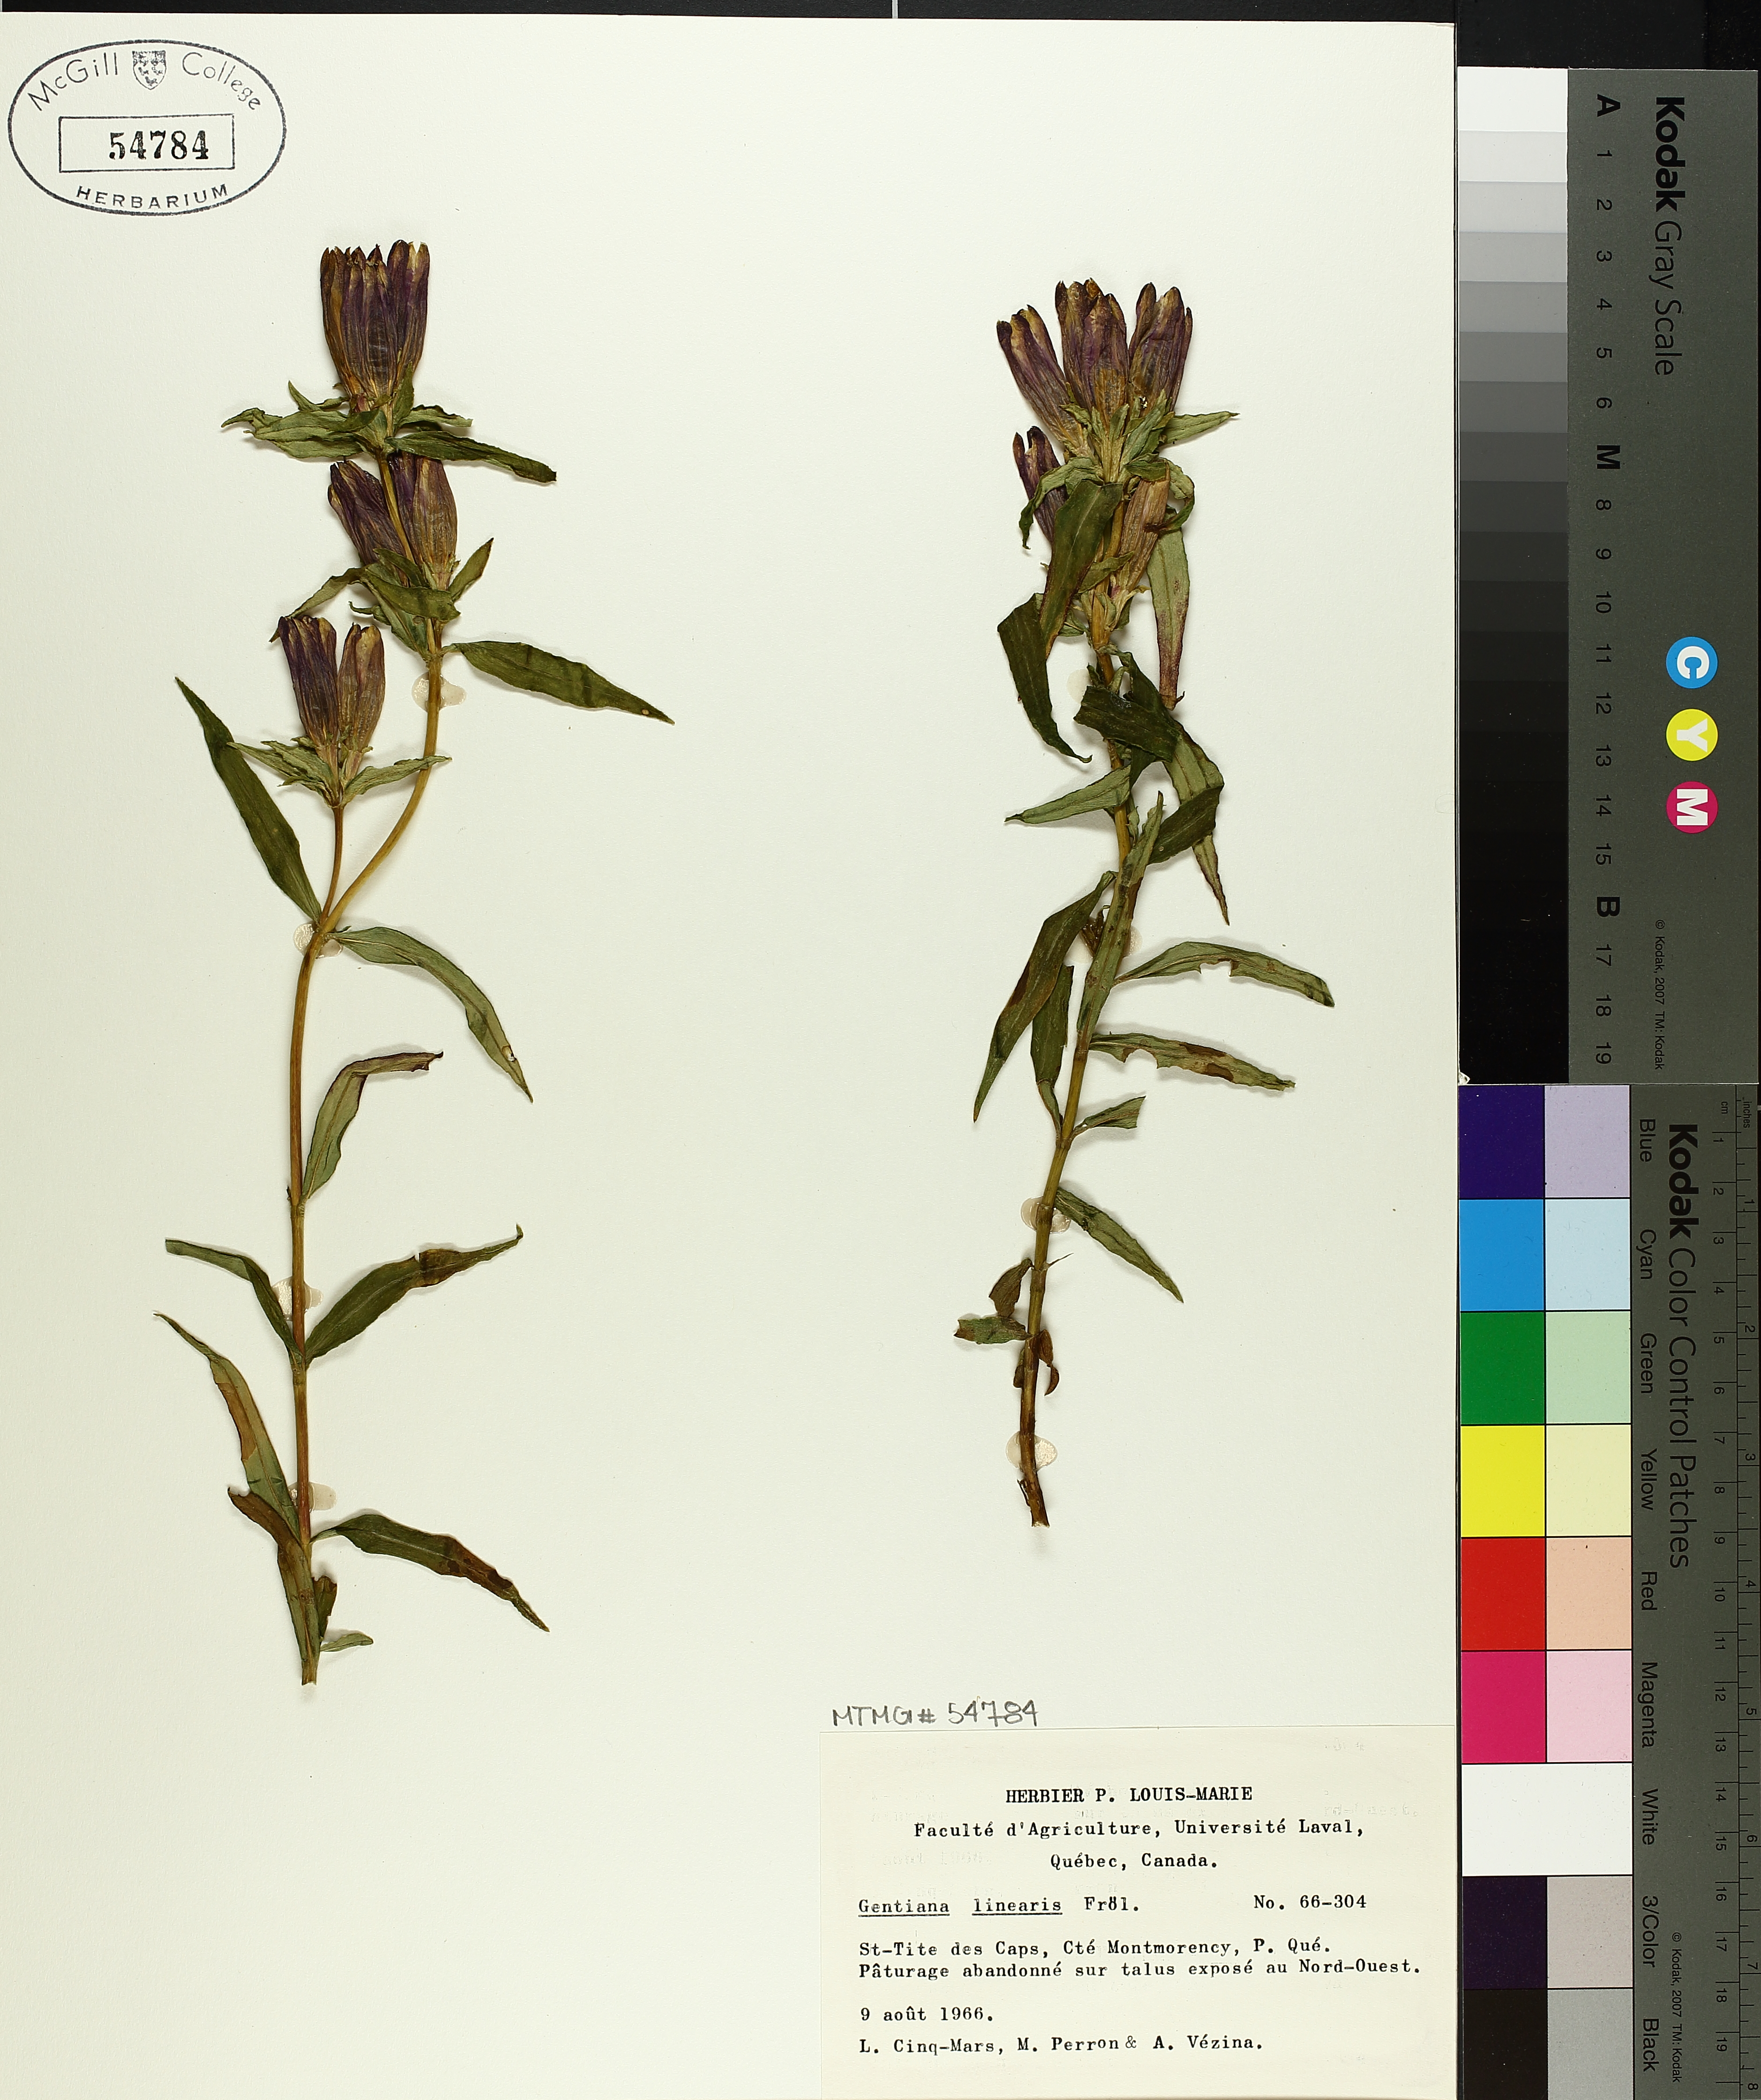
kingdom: Plantae
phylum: Tracheophyta
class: Magnoliopsida
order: Gentianales
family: Gentianaceae
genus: Gentiana
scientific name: Gentiana linearis
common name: Bastard gentian
